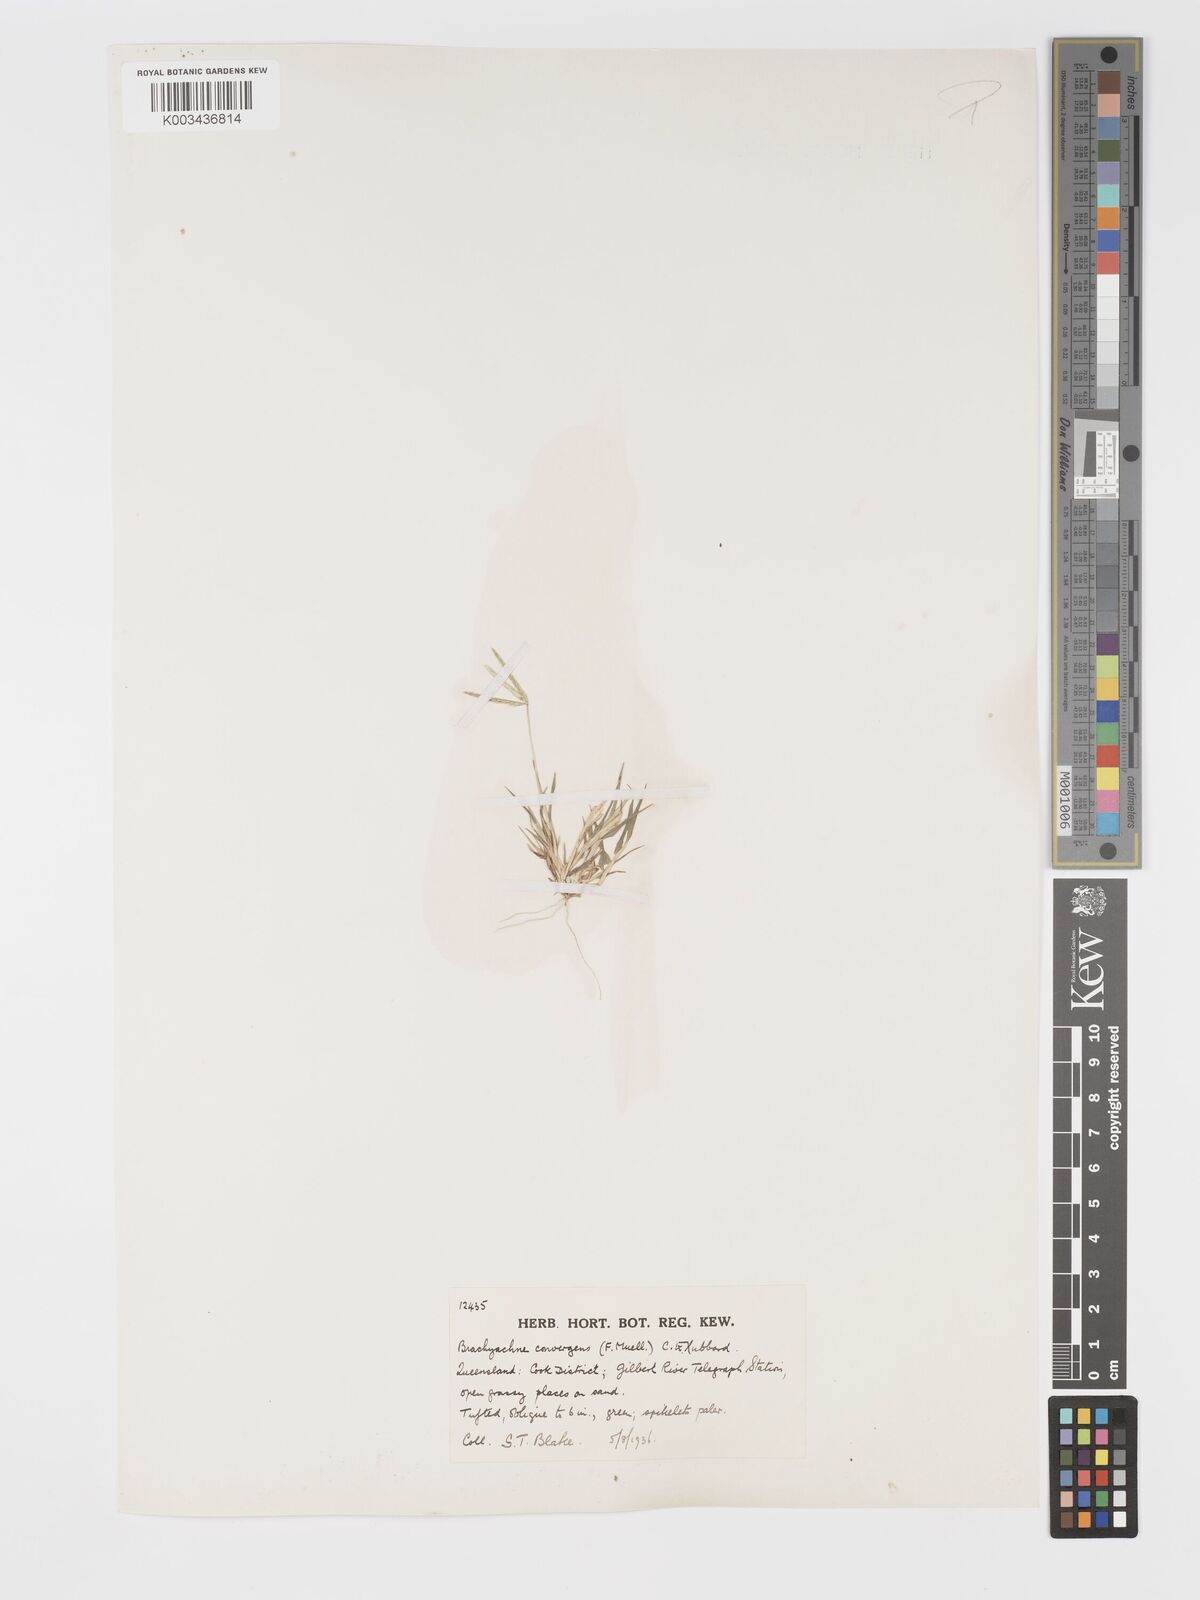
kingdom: Plantae
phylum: Tracheophyta
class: Liliopsida
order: Poales
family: Poaceae
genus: Cynodon
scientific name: Cynodon convergens
